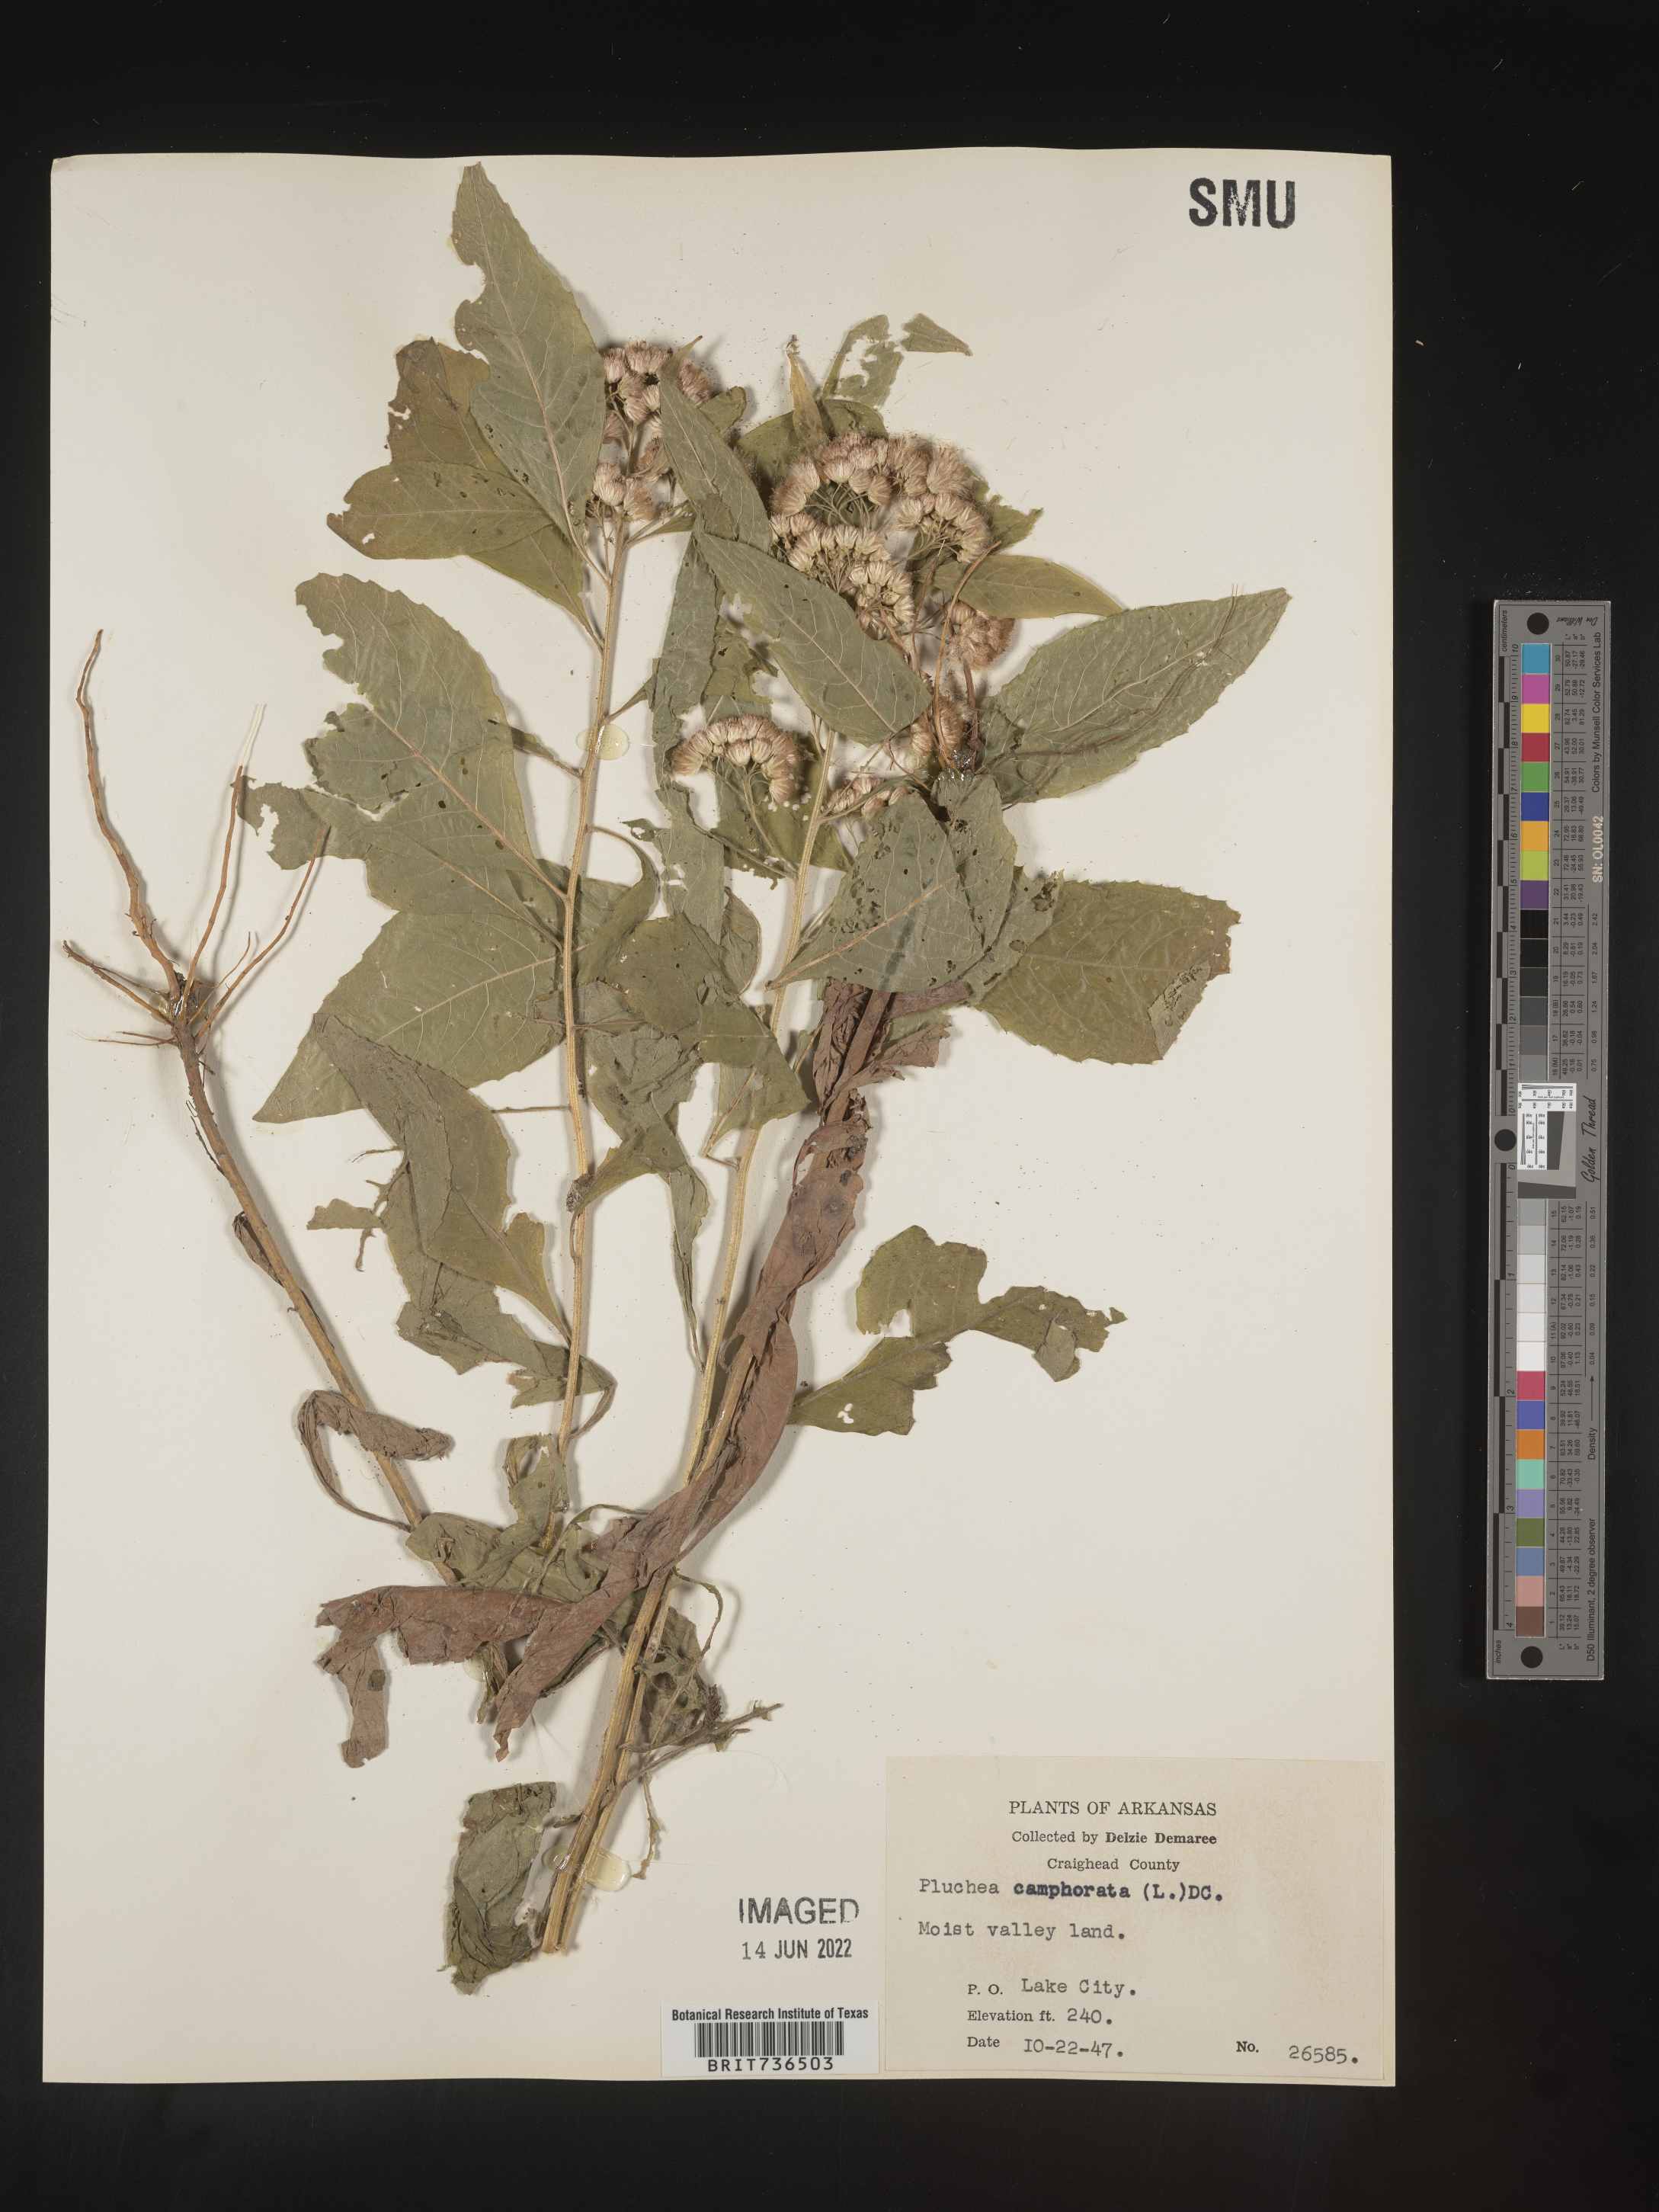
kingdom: Plantae
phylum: Tracheophyta
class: Magnoliopsida
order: Asterales
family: Asteraceae
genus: Pluchea
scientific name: Pluchea camphorata
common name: Camphor pluchea
